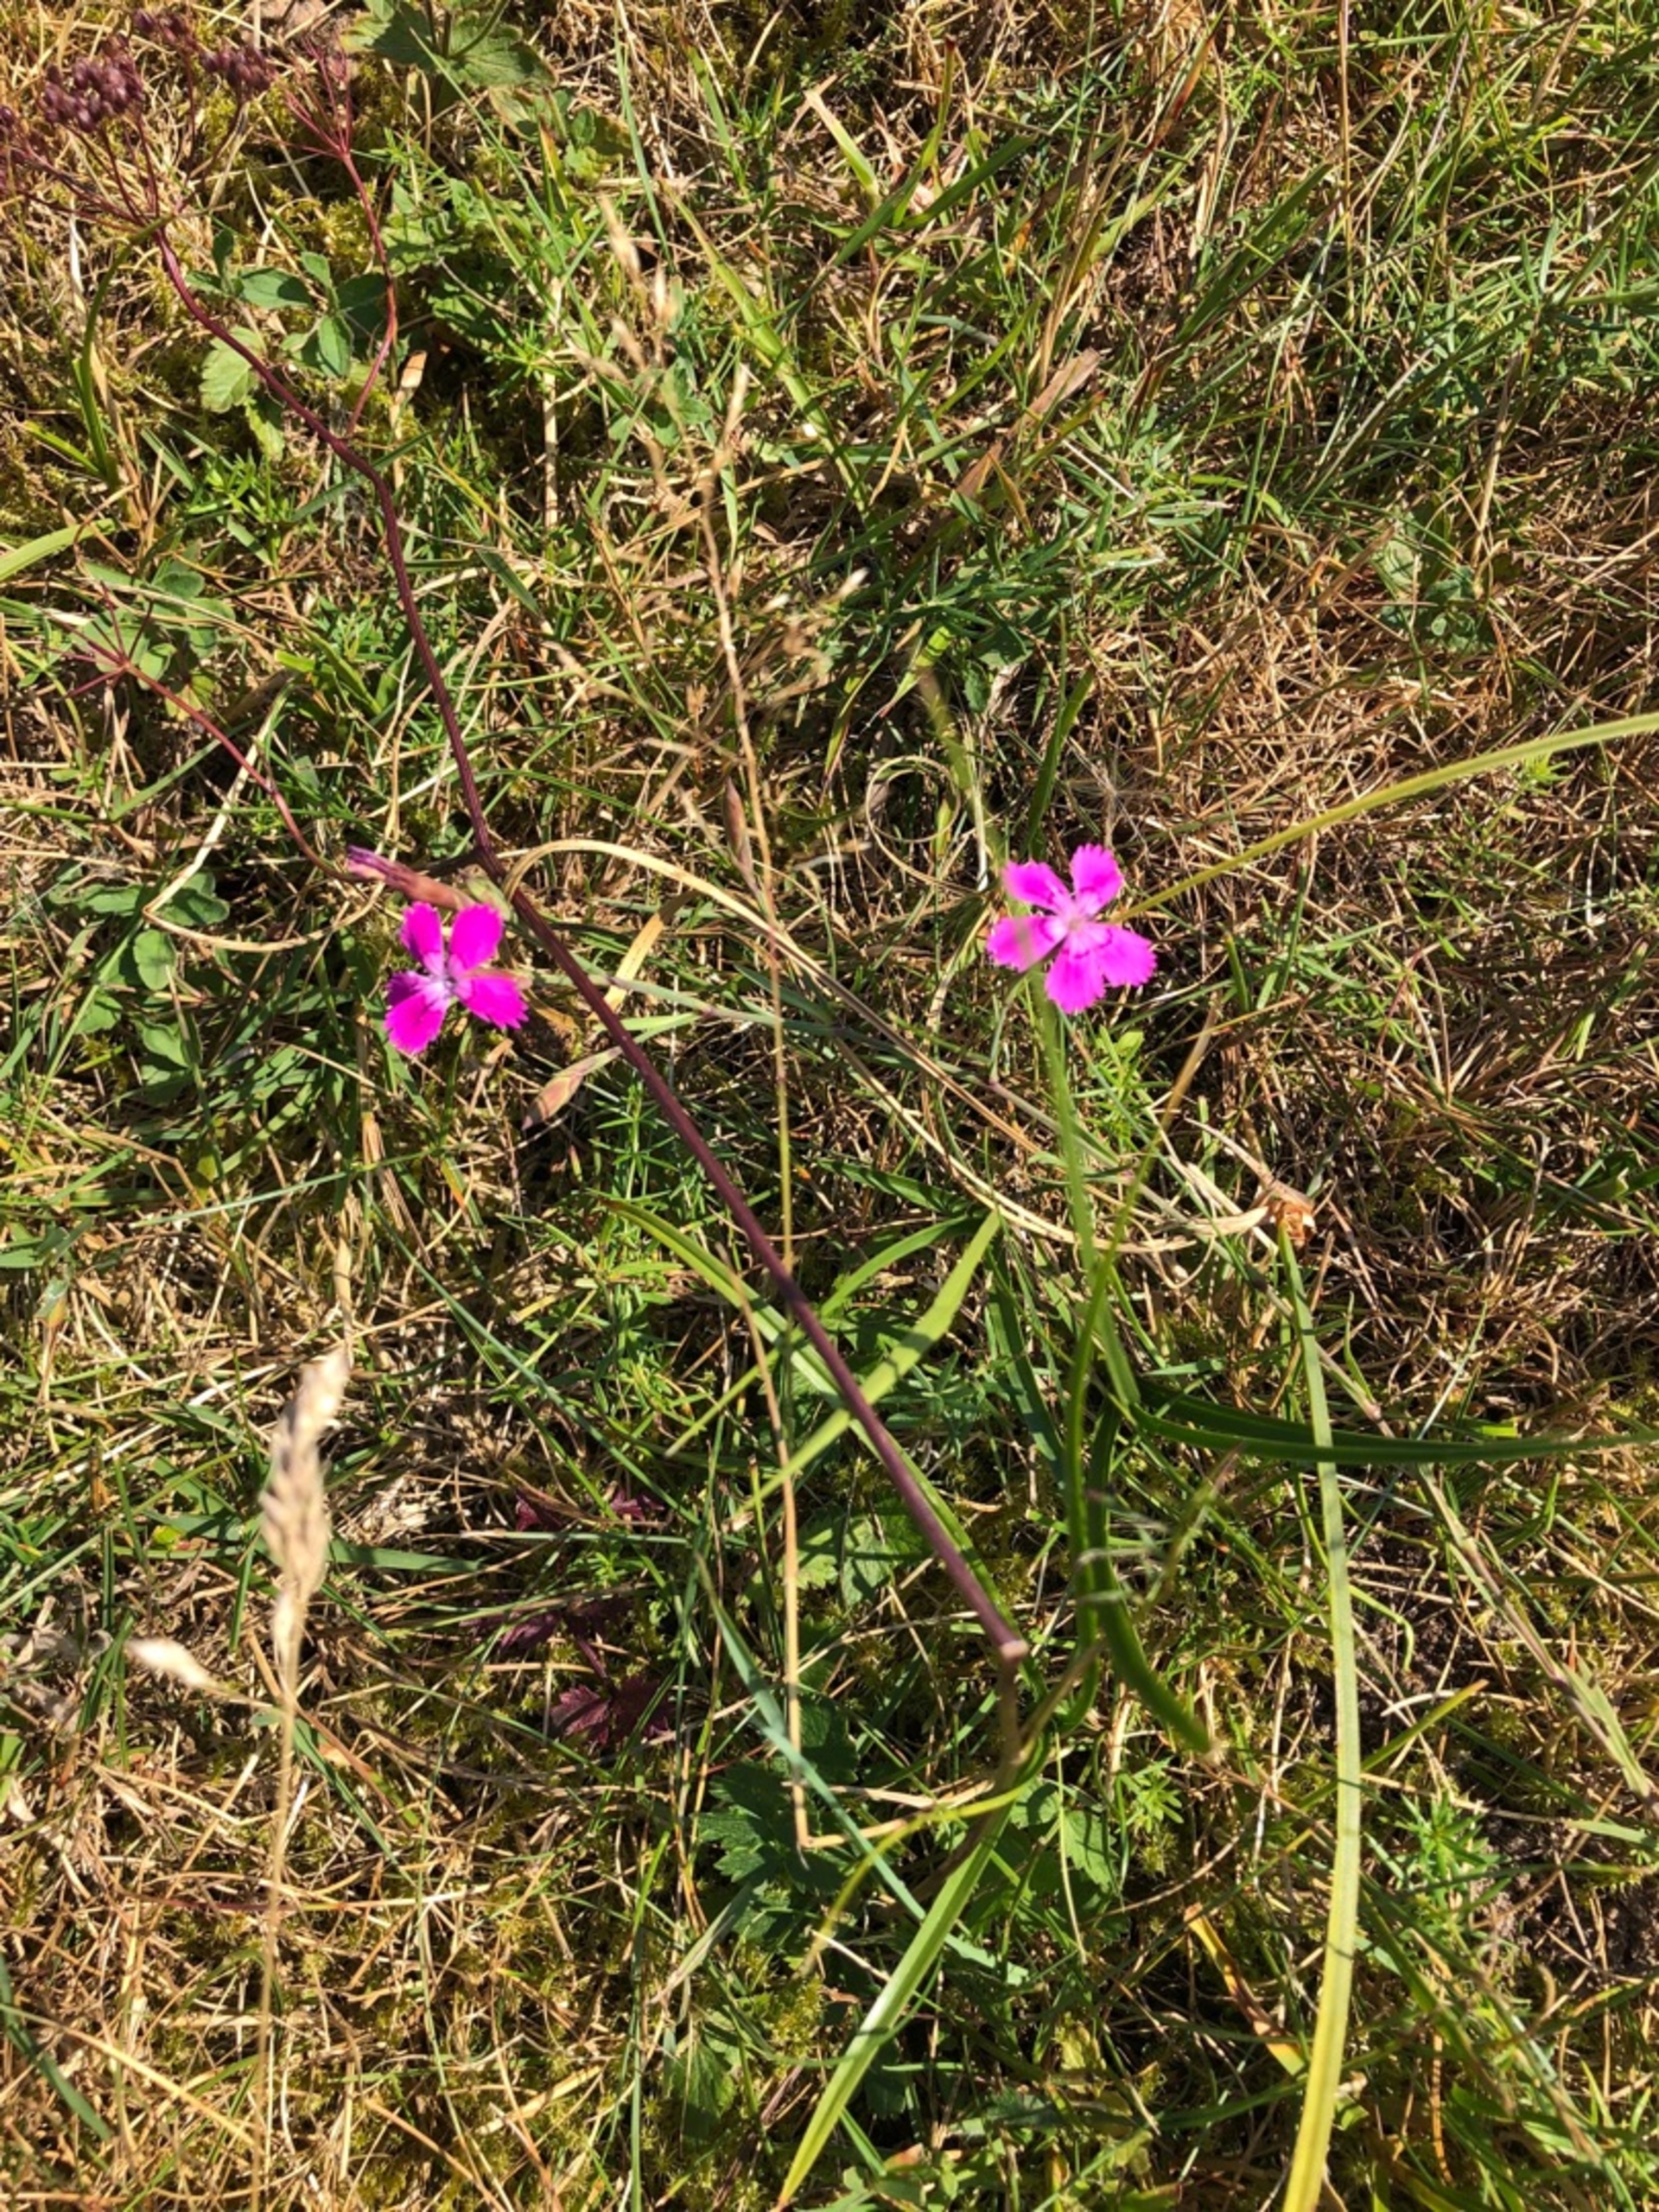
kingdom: Plantae
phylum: Tracheophyta
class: Magnoliopsida
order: Caryophyllales
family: Caryophyllaceae
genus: Dianthus
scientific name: Dianthus deltoides
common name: Bakke-nellike
